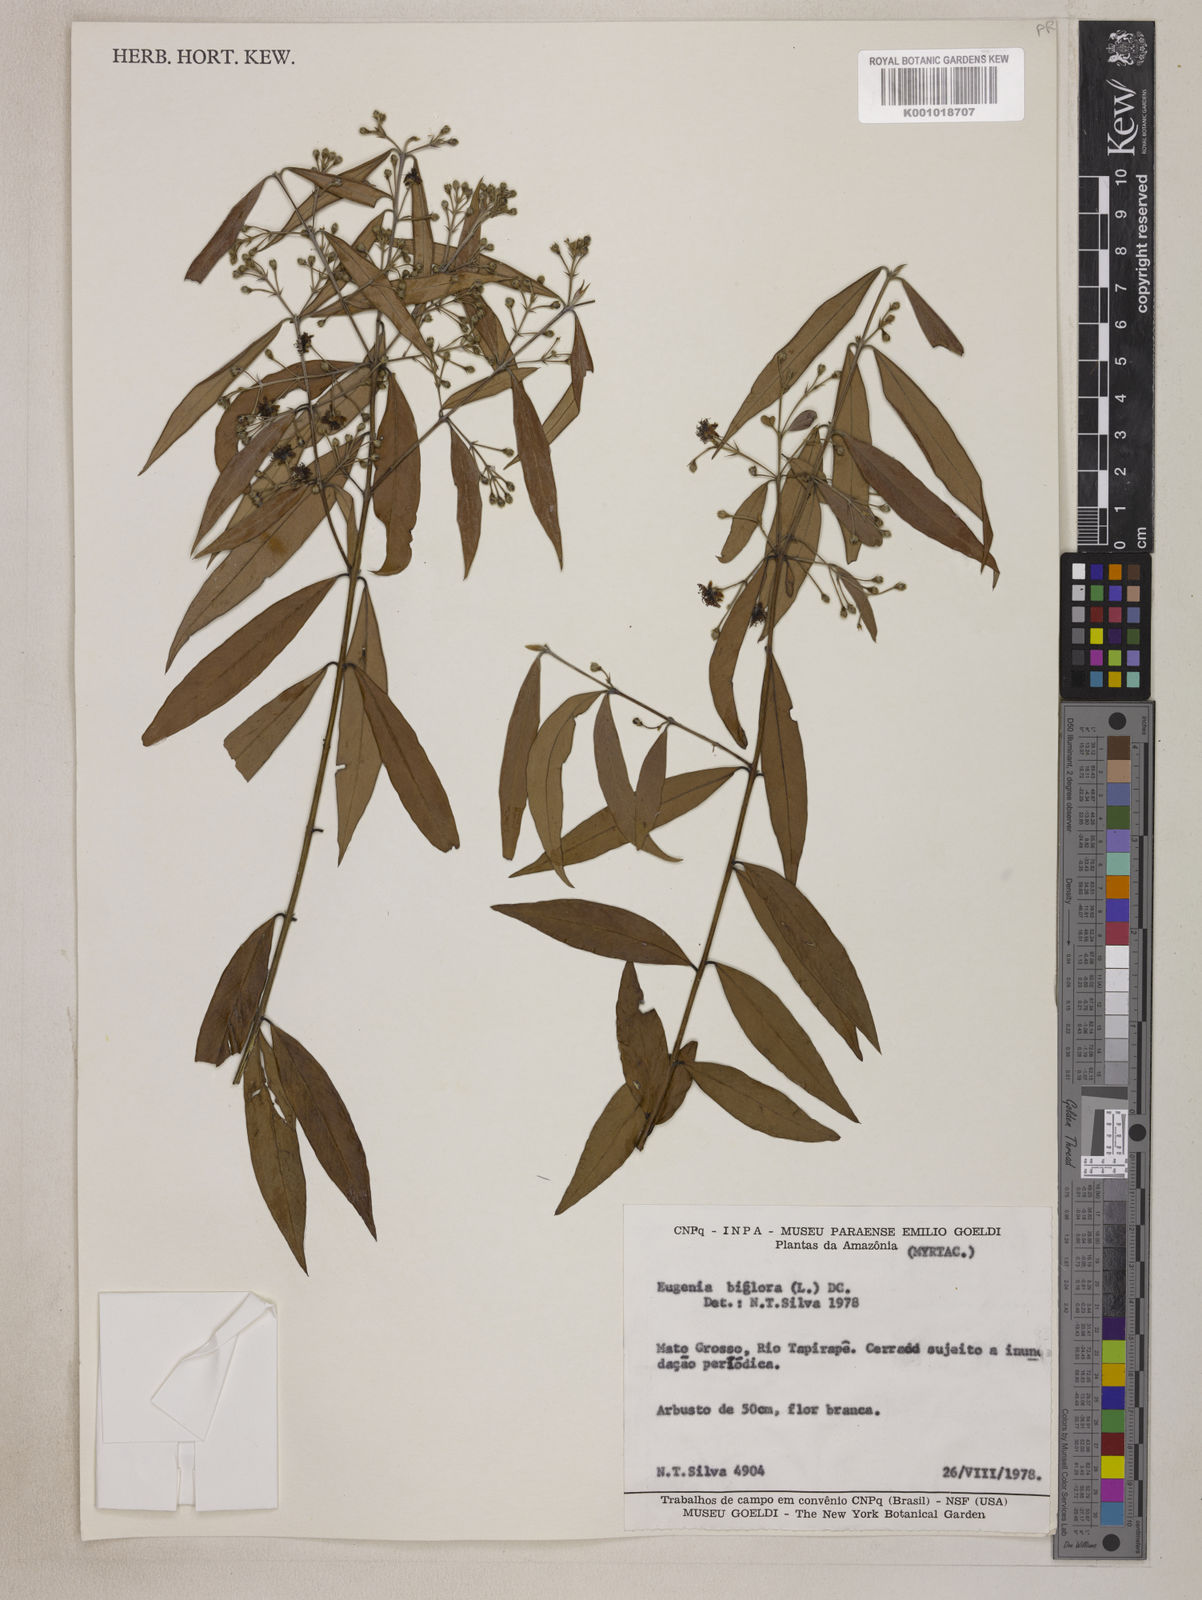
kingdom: Plantae
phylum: Tracheophyta
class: Magnoliopsida
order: Myrtales
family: Myrtaceae
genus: Eugenia
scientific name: Eugenia biflora
